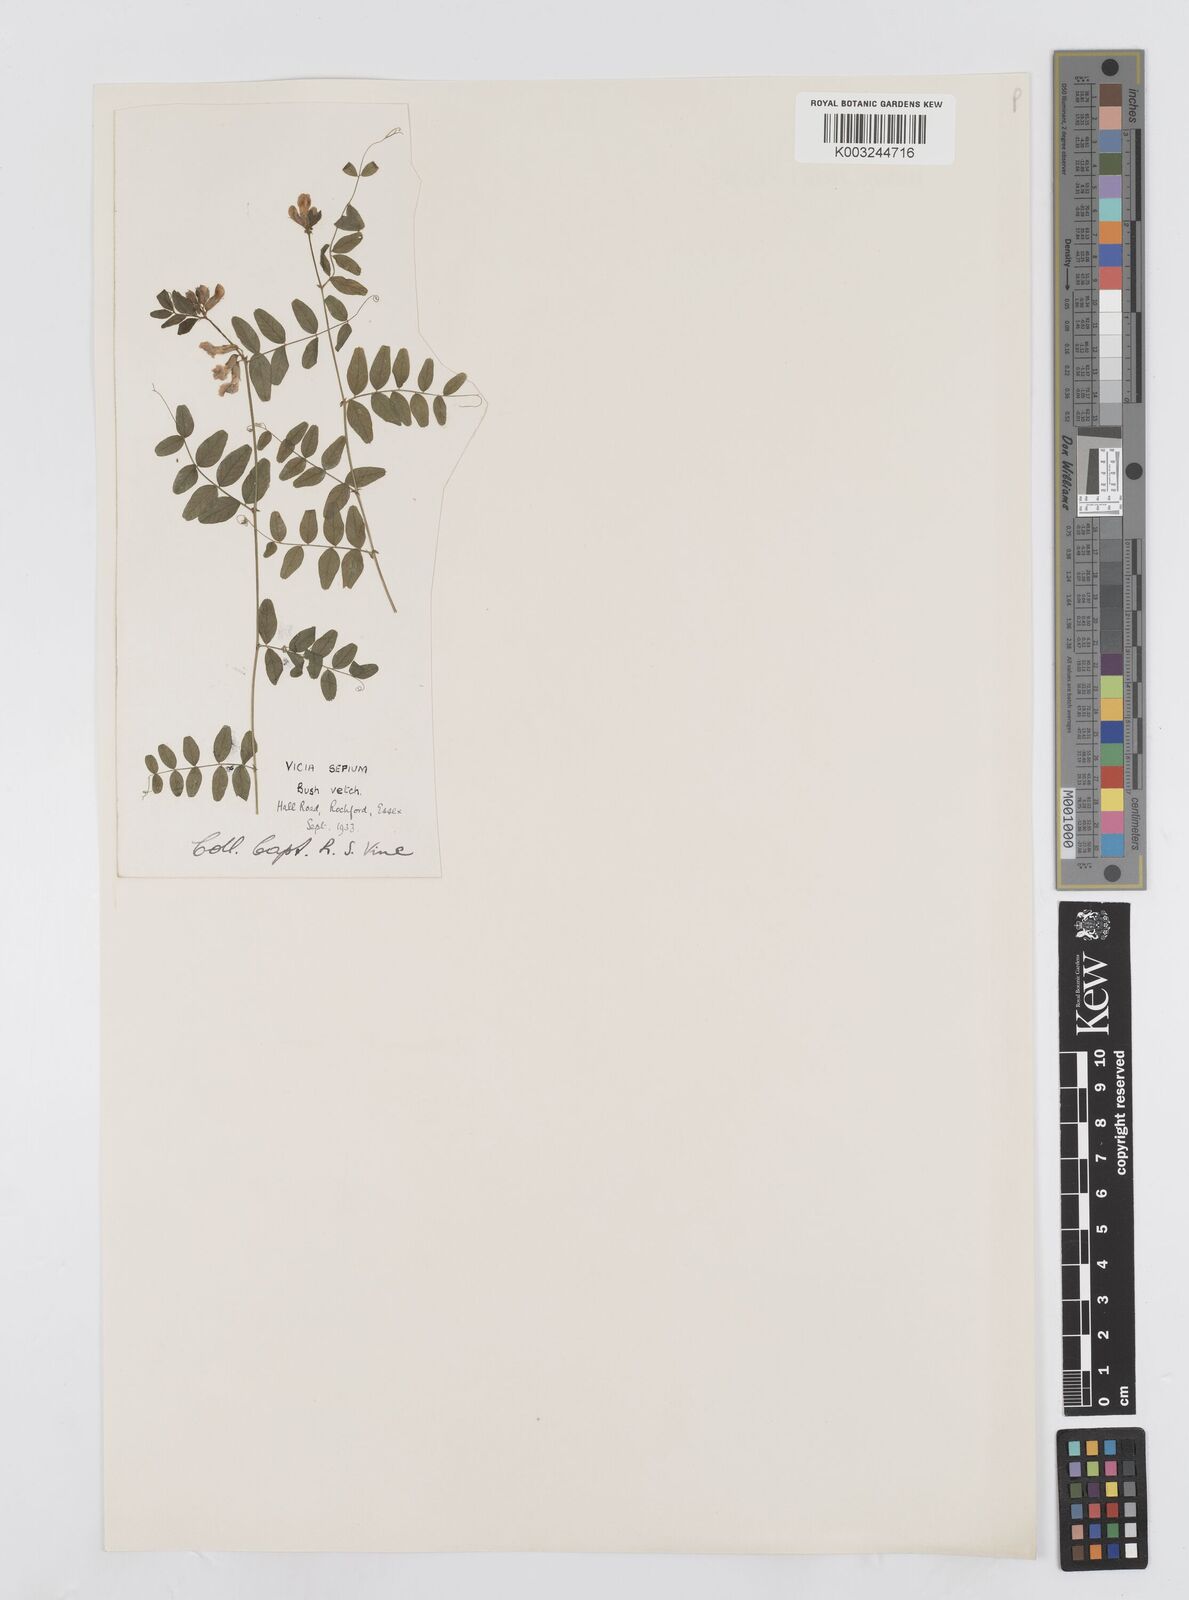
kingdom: Plantae
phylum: Tracheophyta
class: Magnoliopsida
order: Fabales
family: Fabaceae
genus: Vicia
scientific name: Vicia sepium
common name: Bush vetch
